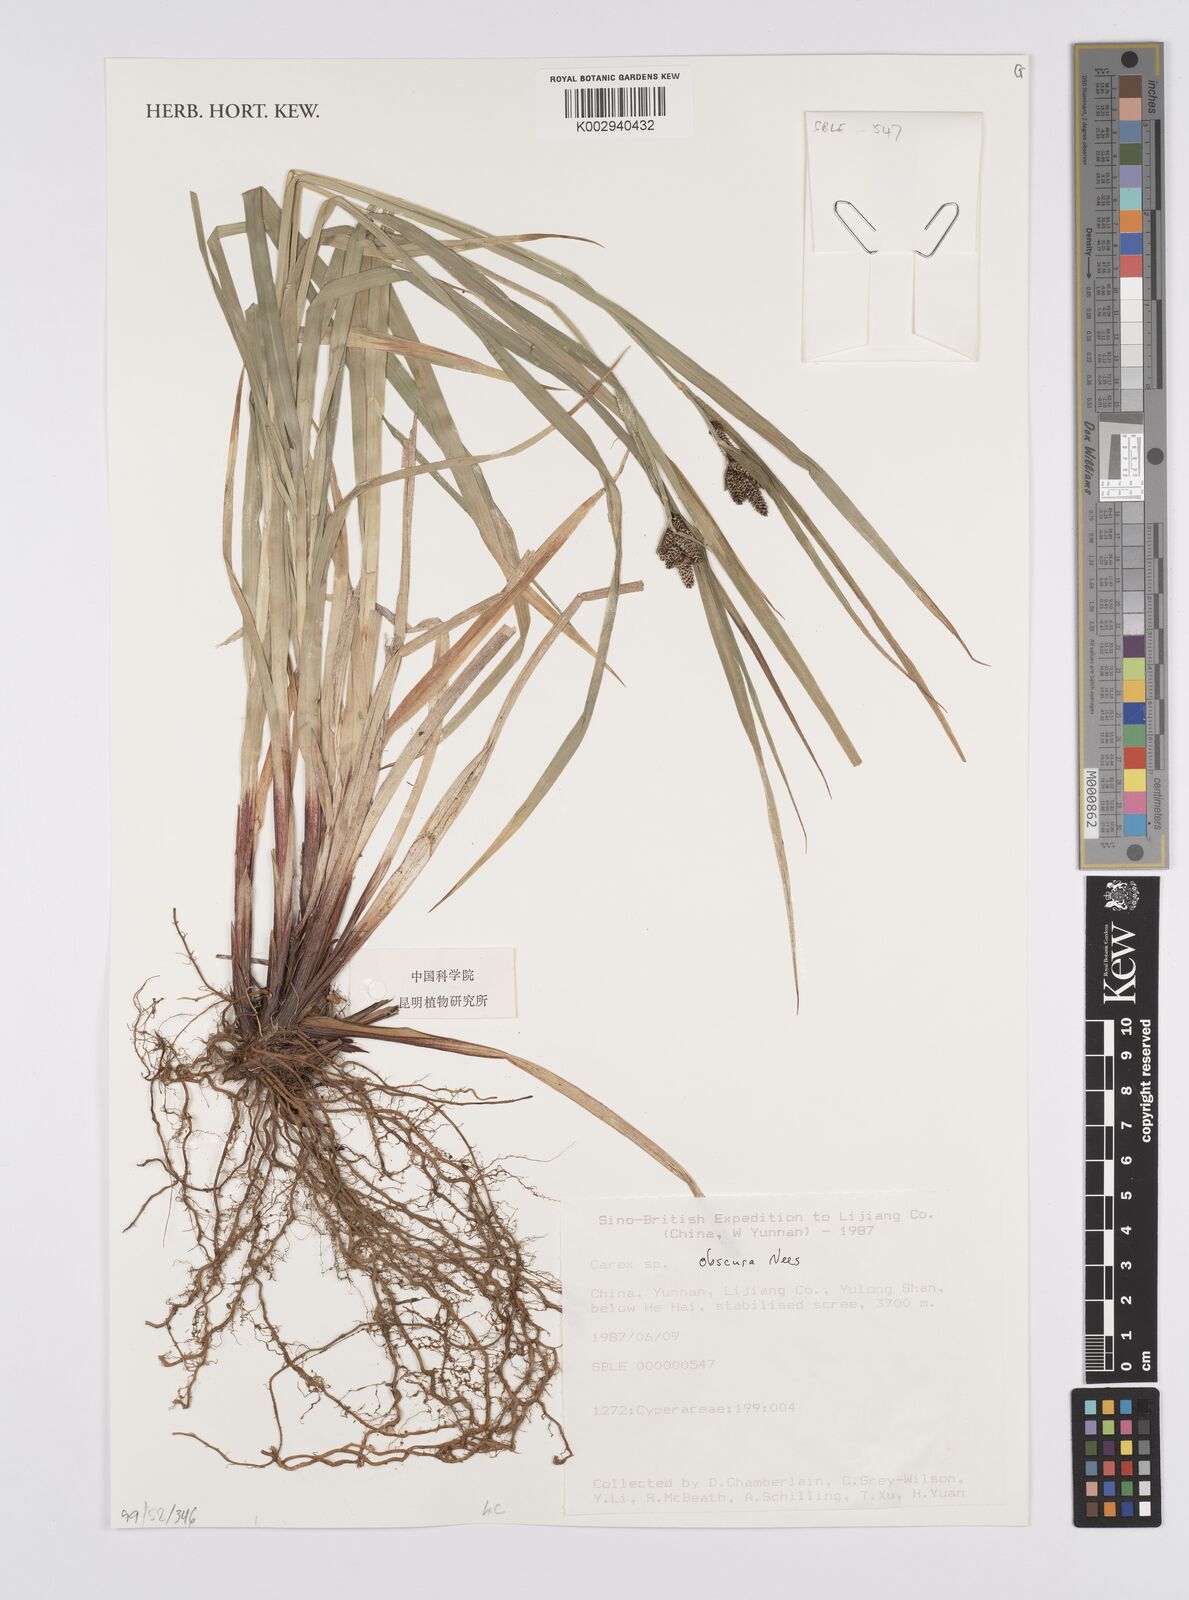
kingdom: Plantae
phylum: Tracheophyta
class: Liliopsida
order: Poales
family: Cyperaceae
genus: Carex
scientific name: Carex obscura
